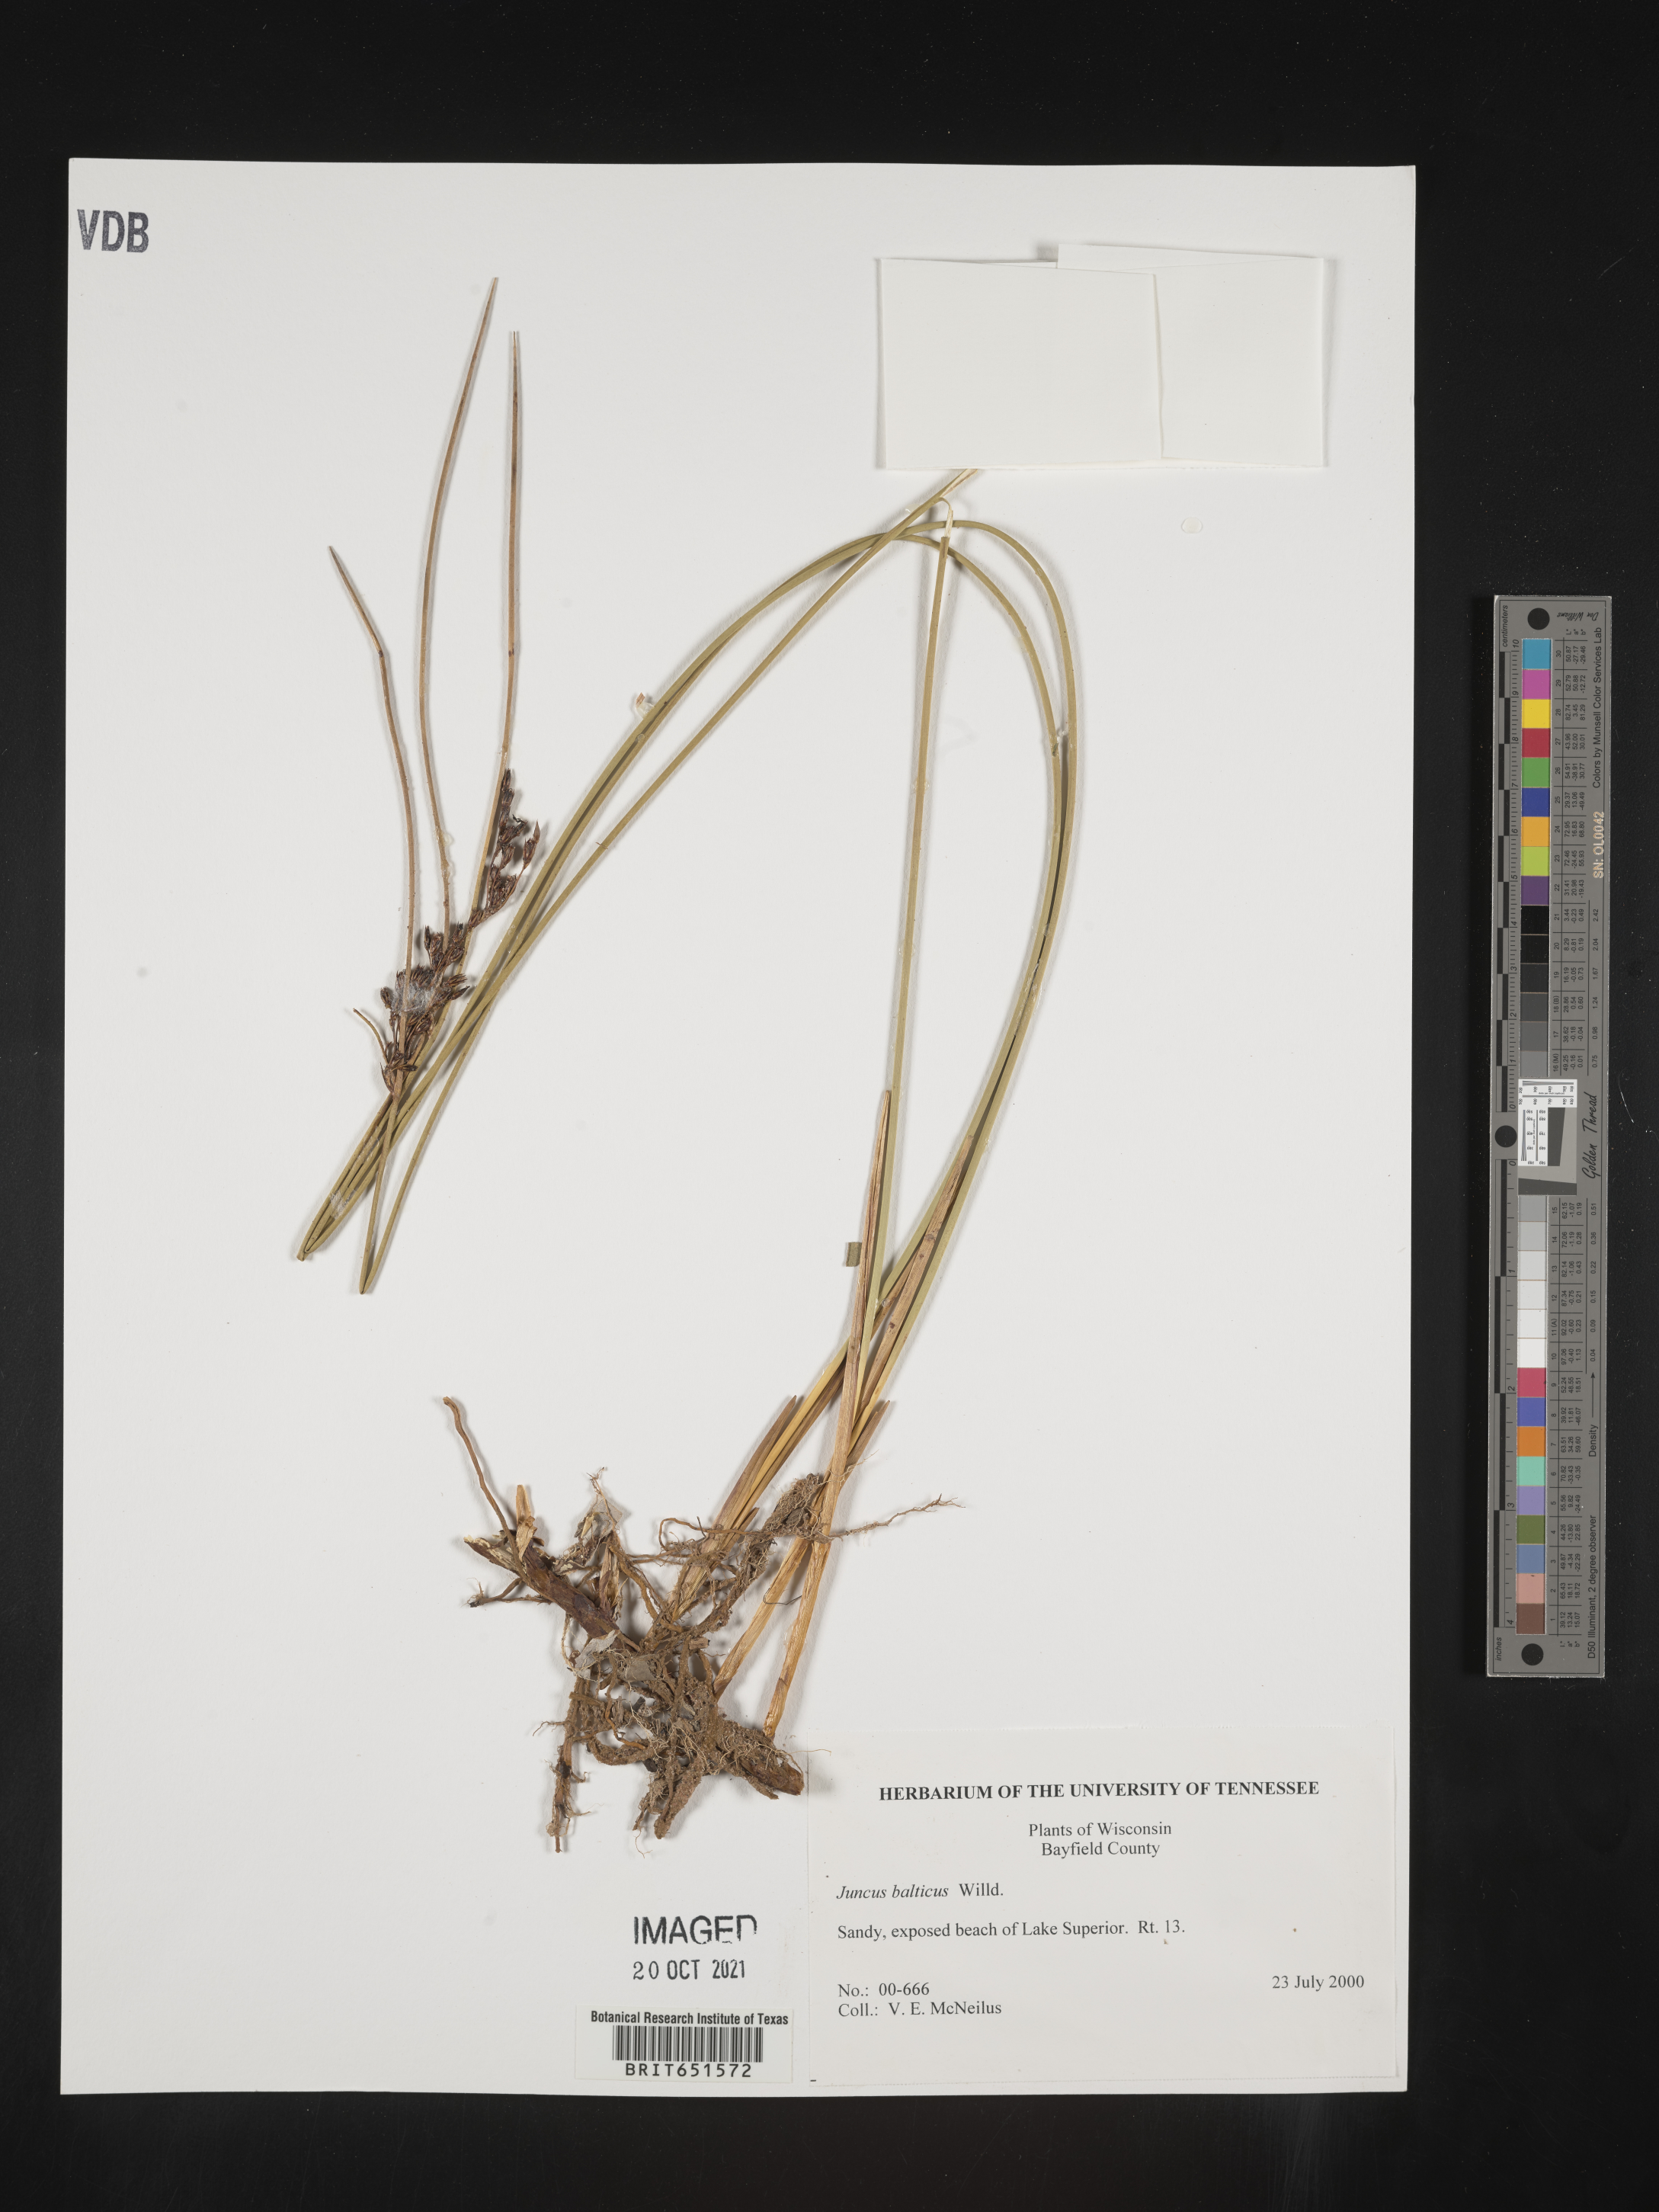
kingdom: Plantae
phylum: Tracheophyta
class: Liliopsida
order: Poales
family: Juncaceae
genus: Juncus
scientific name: Juncus balticus
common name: Baltic rush
